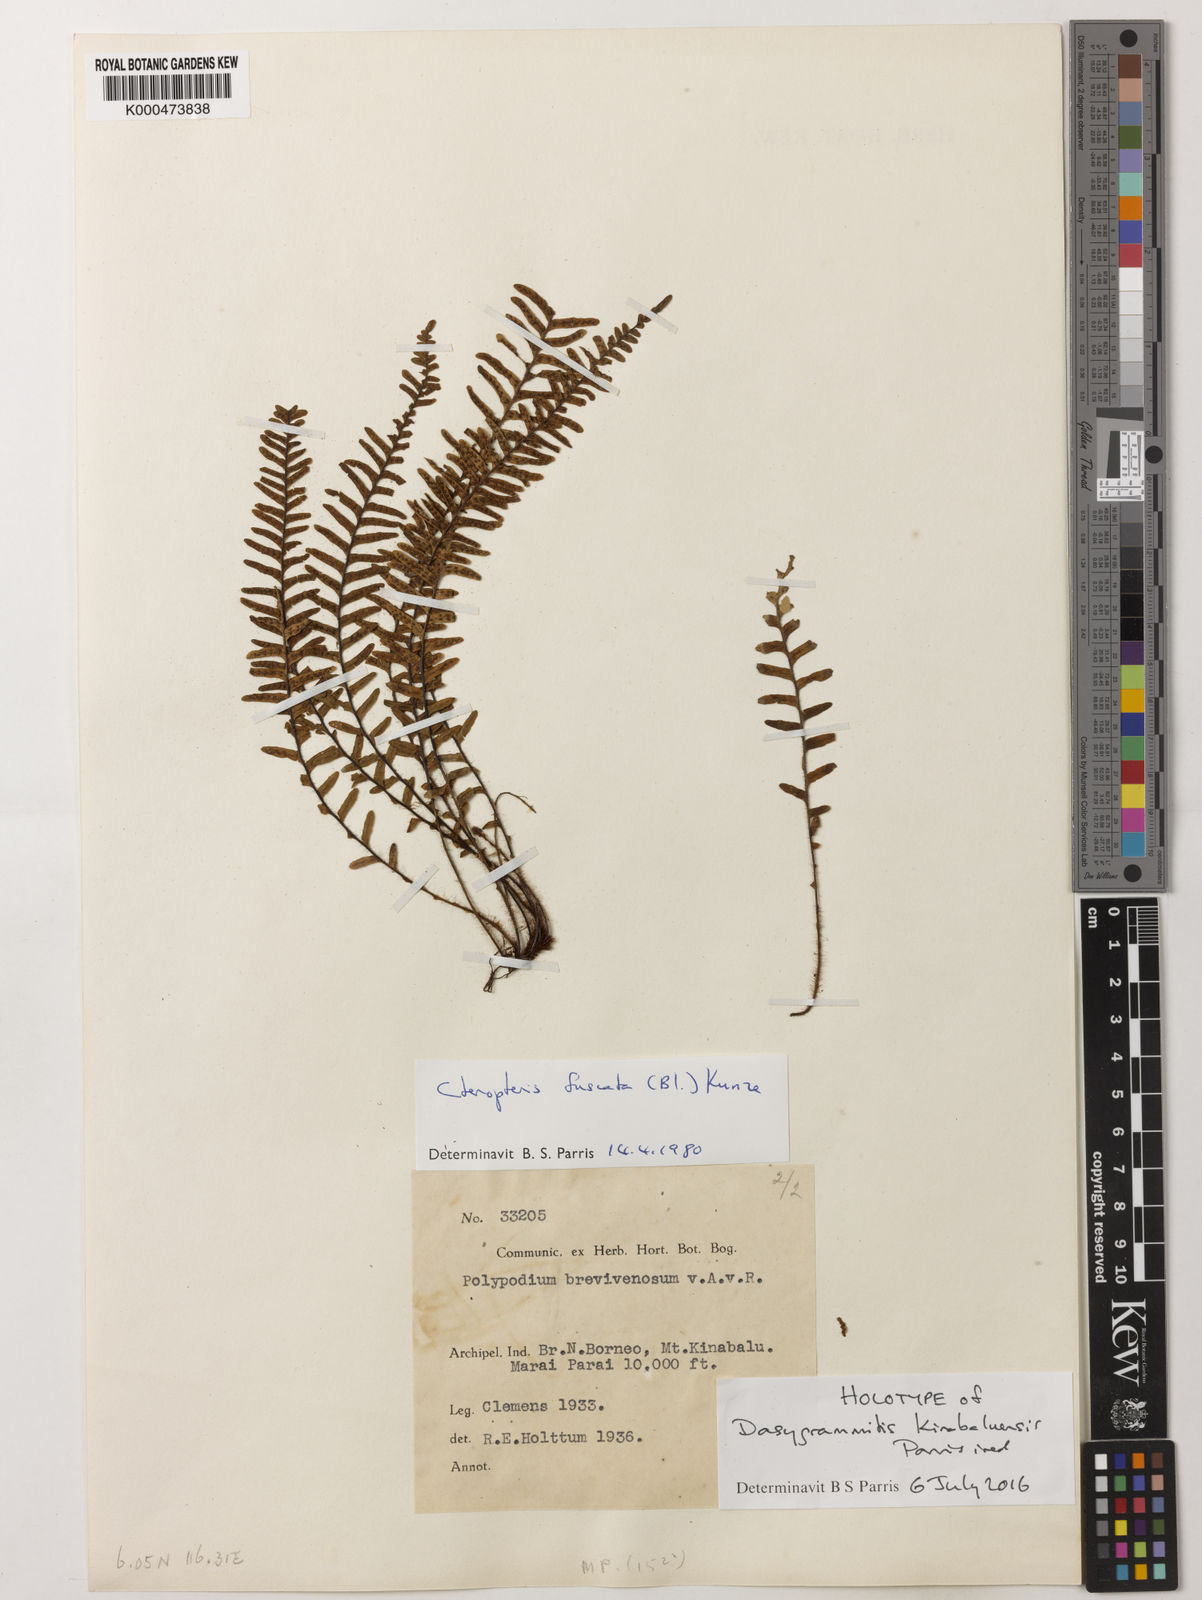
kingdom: Plantae
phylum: Tracheophyta
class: Polypodiopsida
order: Polypodiales
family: Polypodiaceae
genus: Dasygrammitis
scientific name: Dasygrammitis
